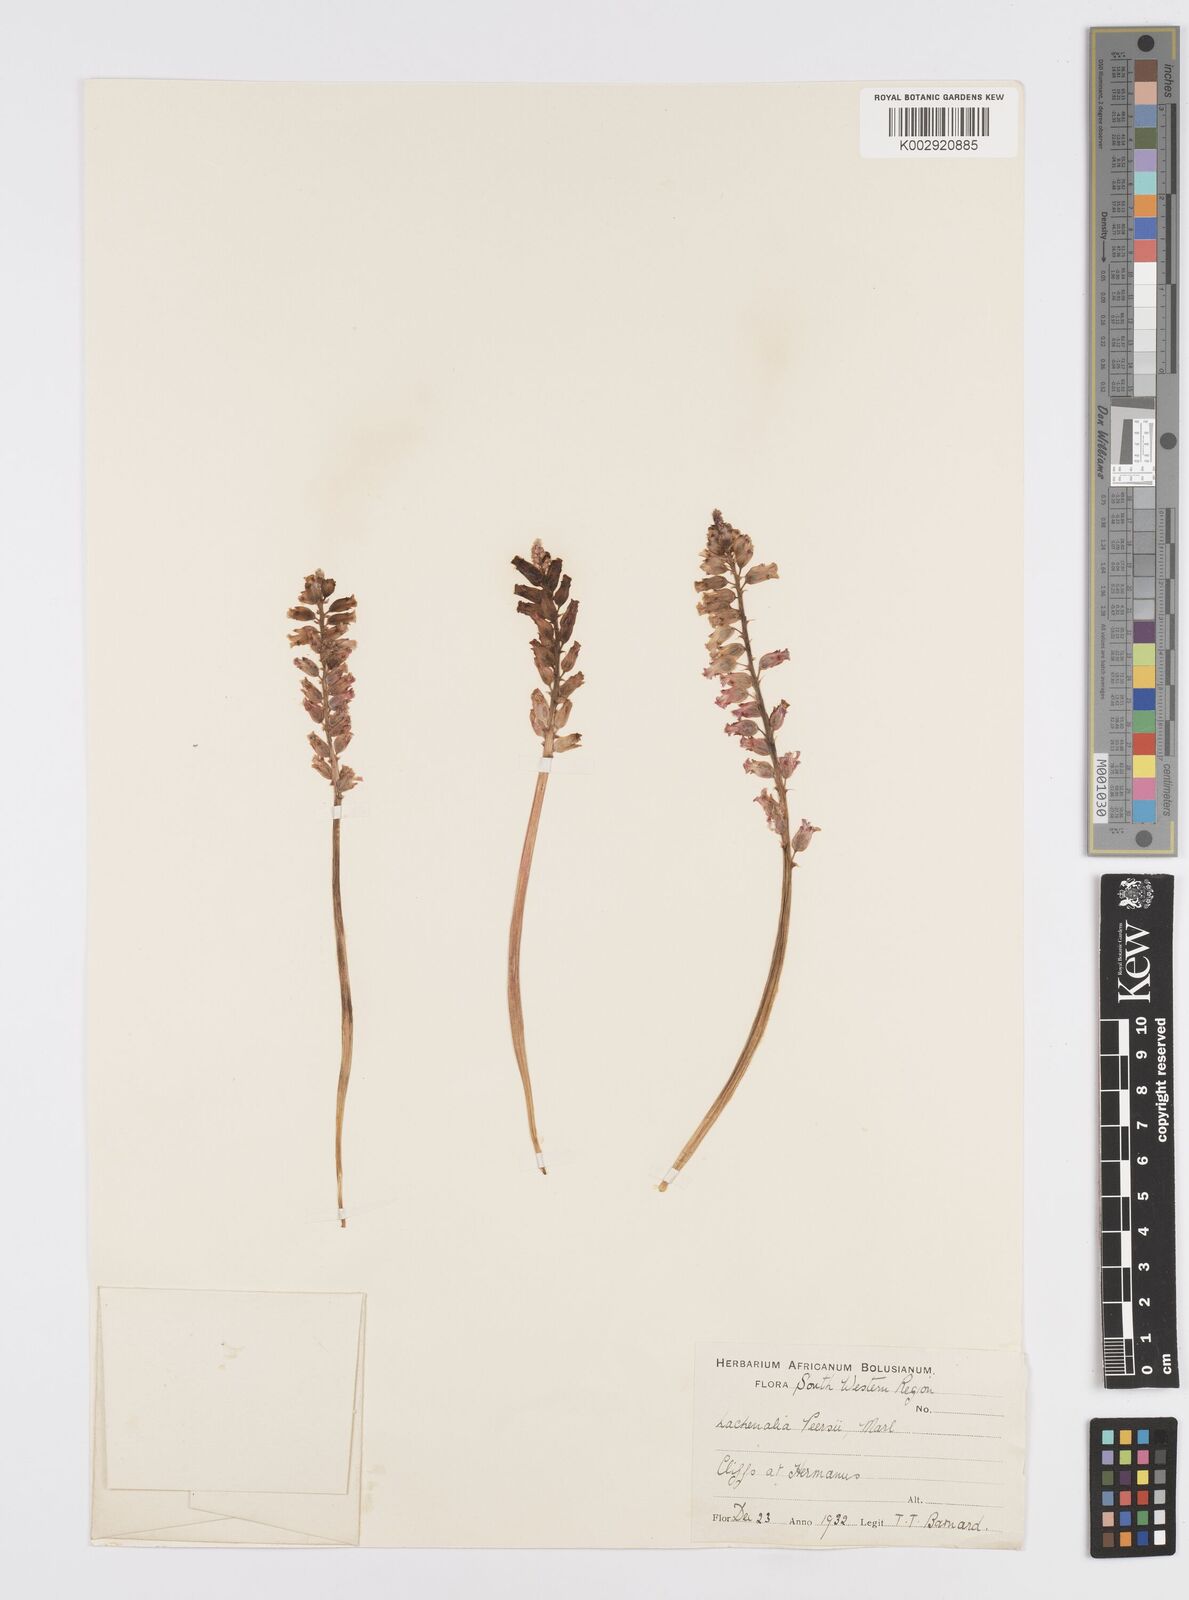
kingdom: Plantae
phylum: Tracheophyta
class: Liliopsida
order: Asparagales
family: Asparagaceae
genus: Lachenalia
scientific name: Lachenalia peersii
